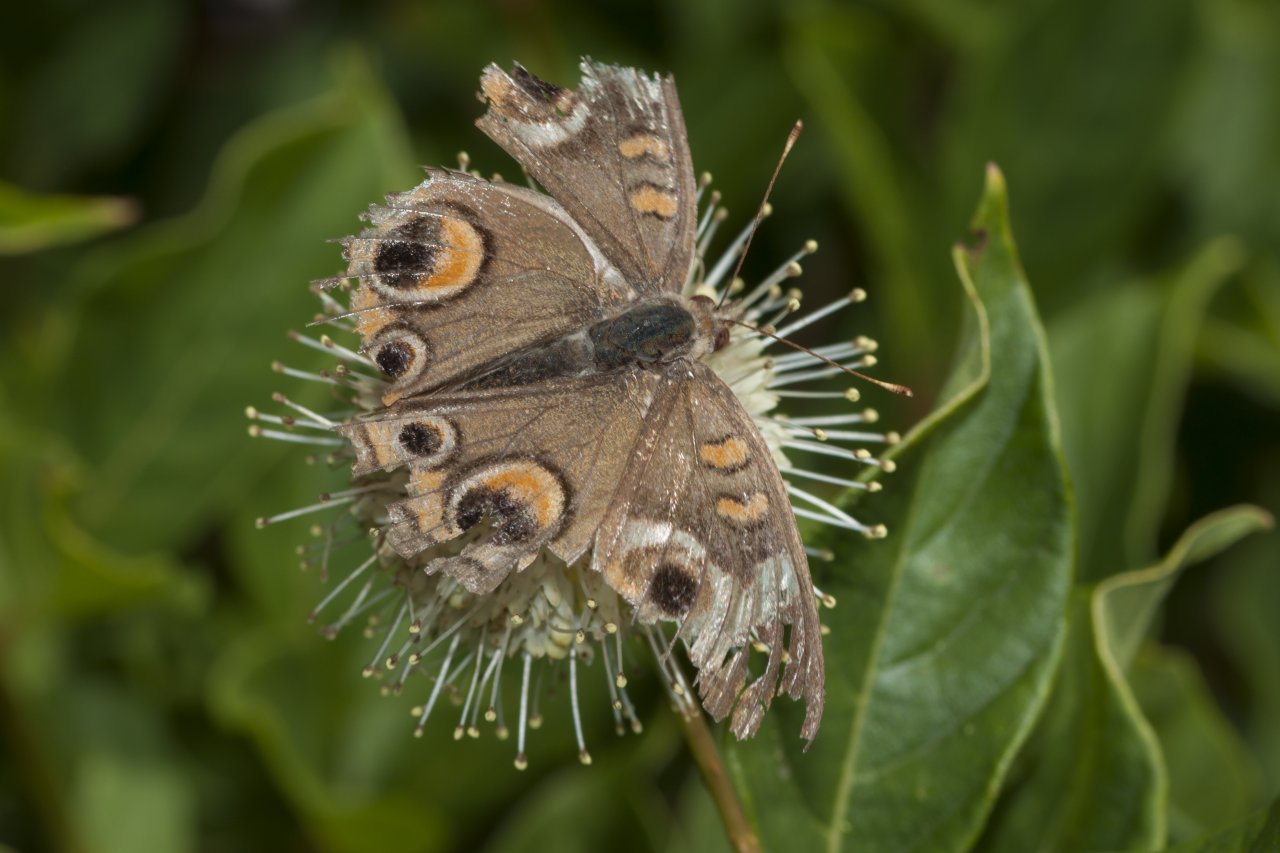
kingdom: Animalia
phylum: Arthropoda
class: Insecta
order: Lepidoptera
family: Nymphalidae
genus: Junonia
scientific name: Junonia coenia
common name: Common Buckeye
